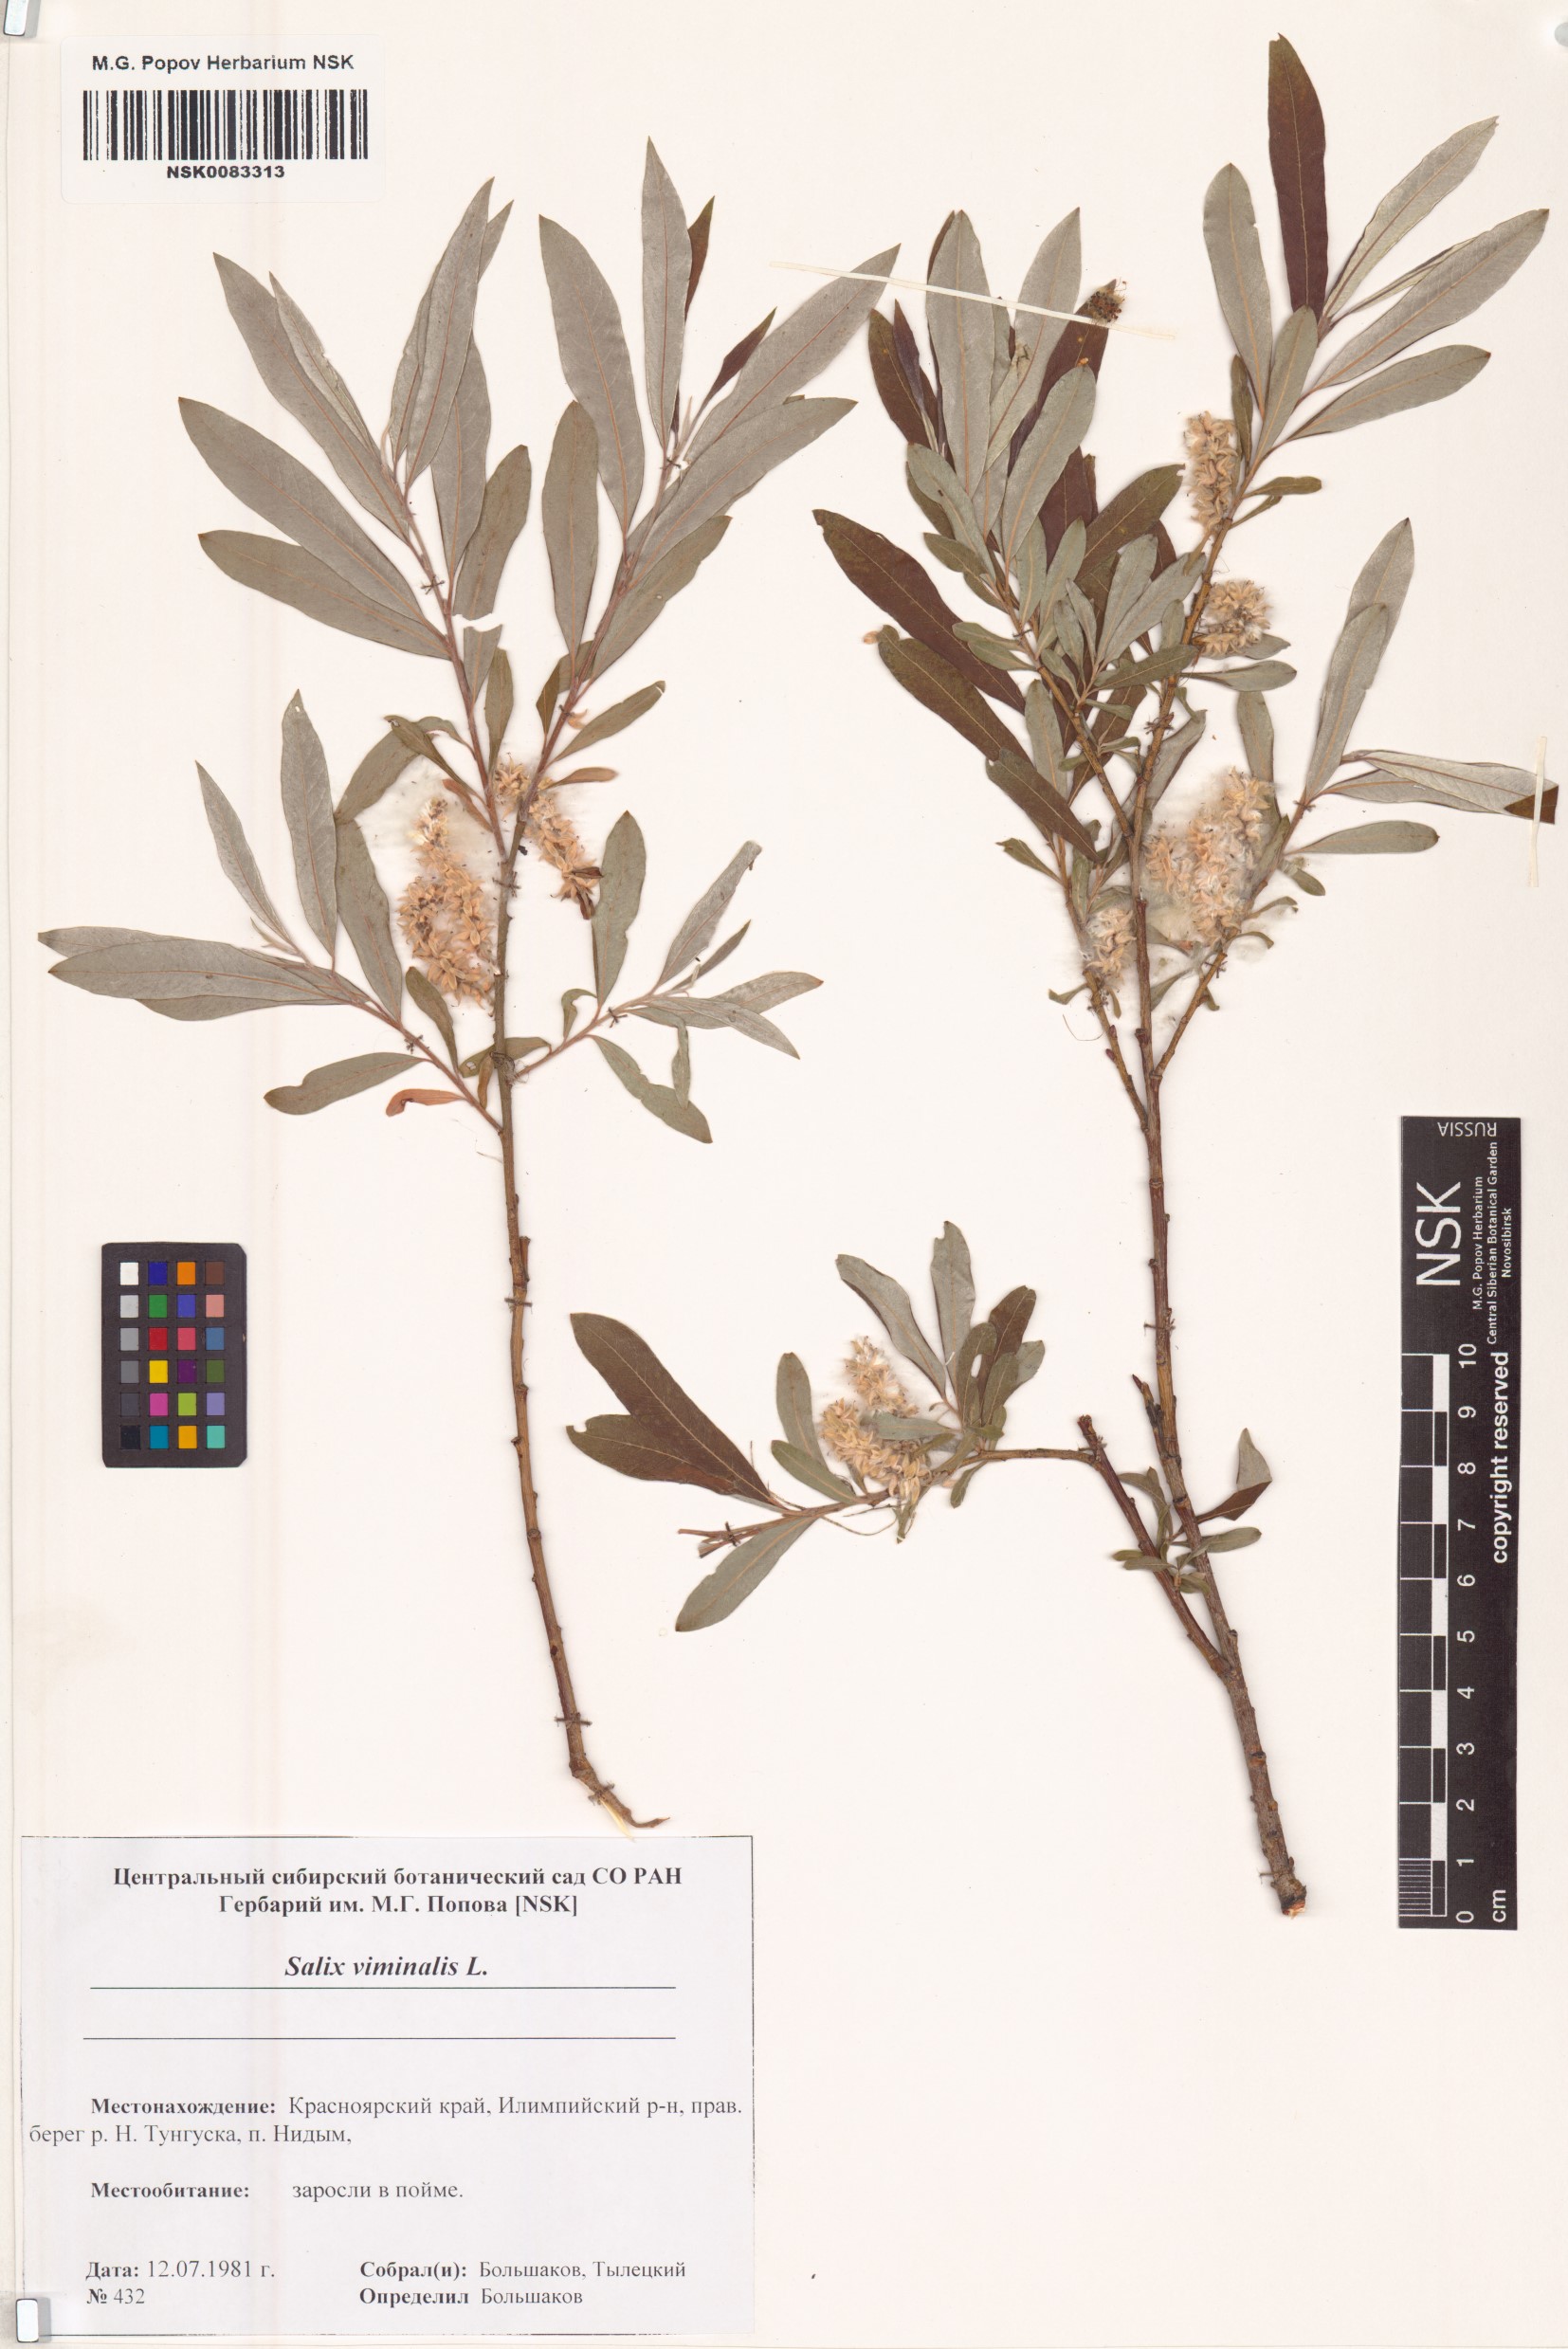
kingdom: Plantae
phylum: Tracheophyta
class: Magnoliopsida
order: Malpighiales
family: Salicaceae
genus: Salix
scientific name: Salix viminalis
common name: Osier
